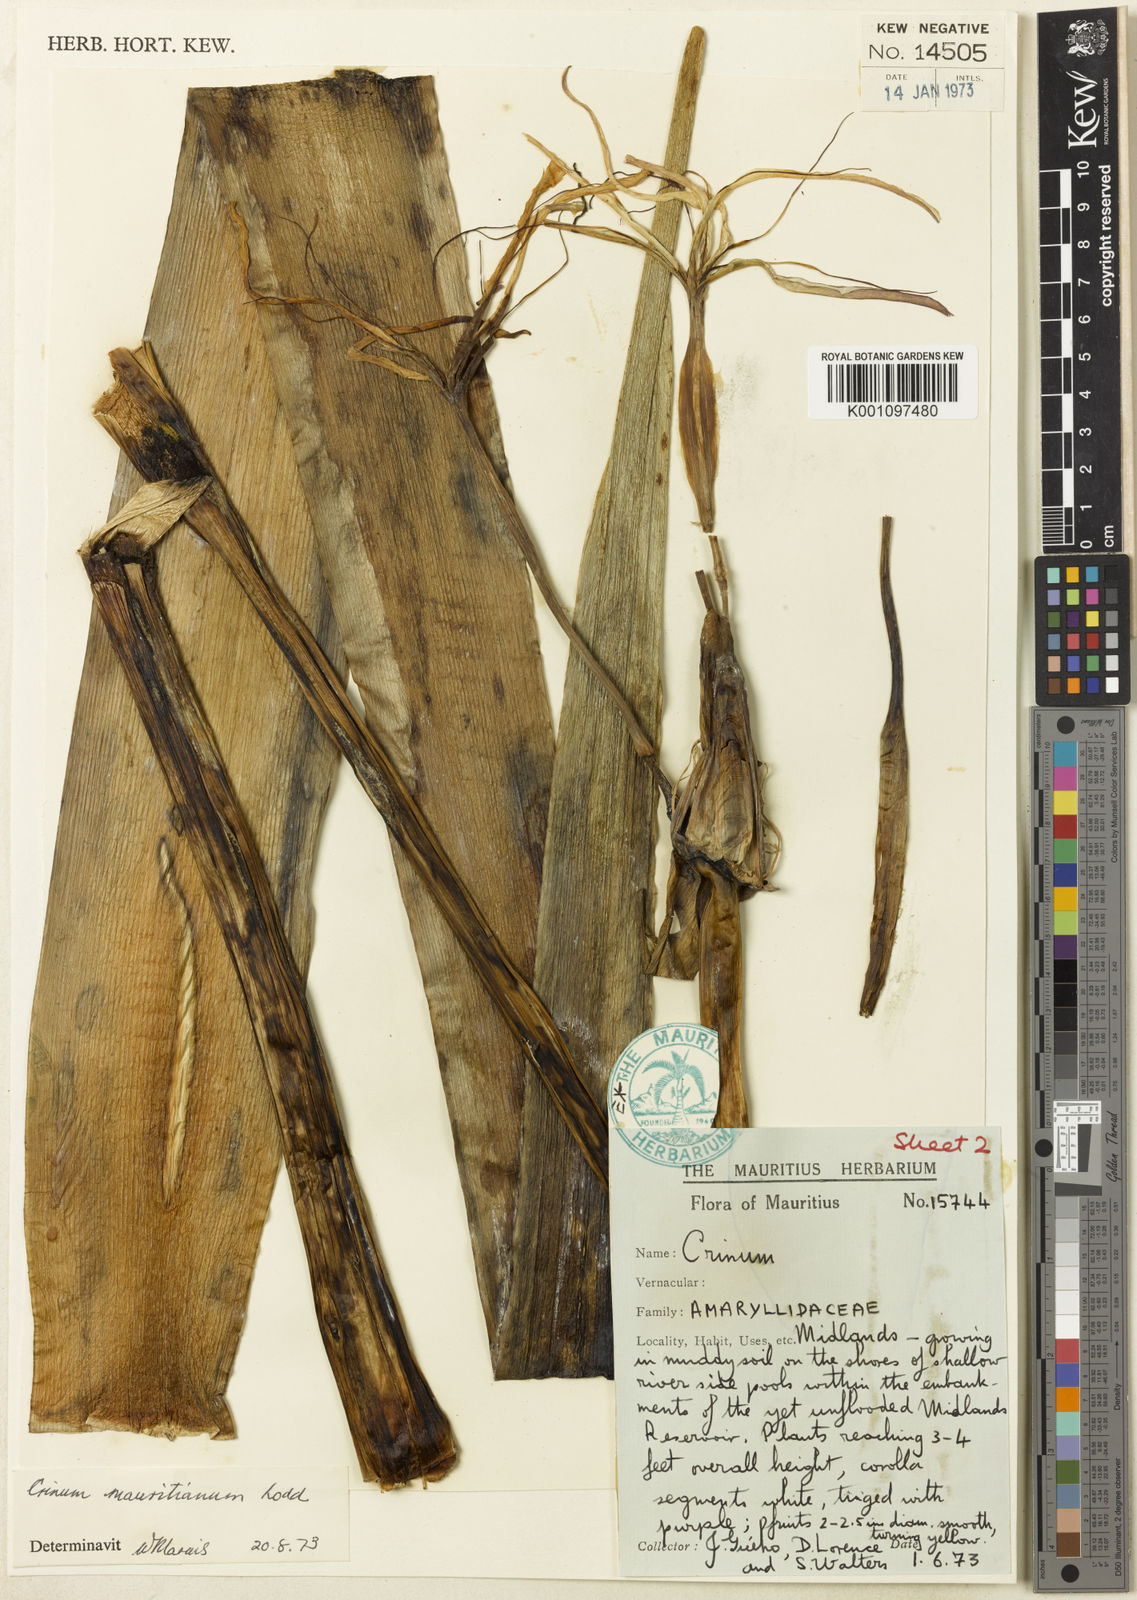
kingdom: Plantae
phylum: Tracheophyta
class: Liliopsida
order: Asparagales
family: Amaryllidaceae
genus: Crinum
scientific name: Crinum mauritianum
